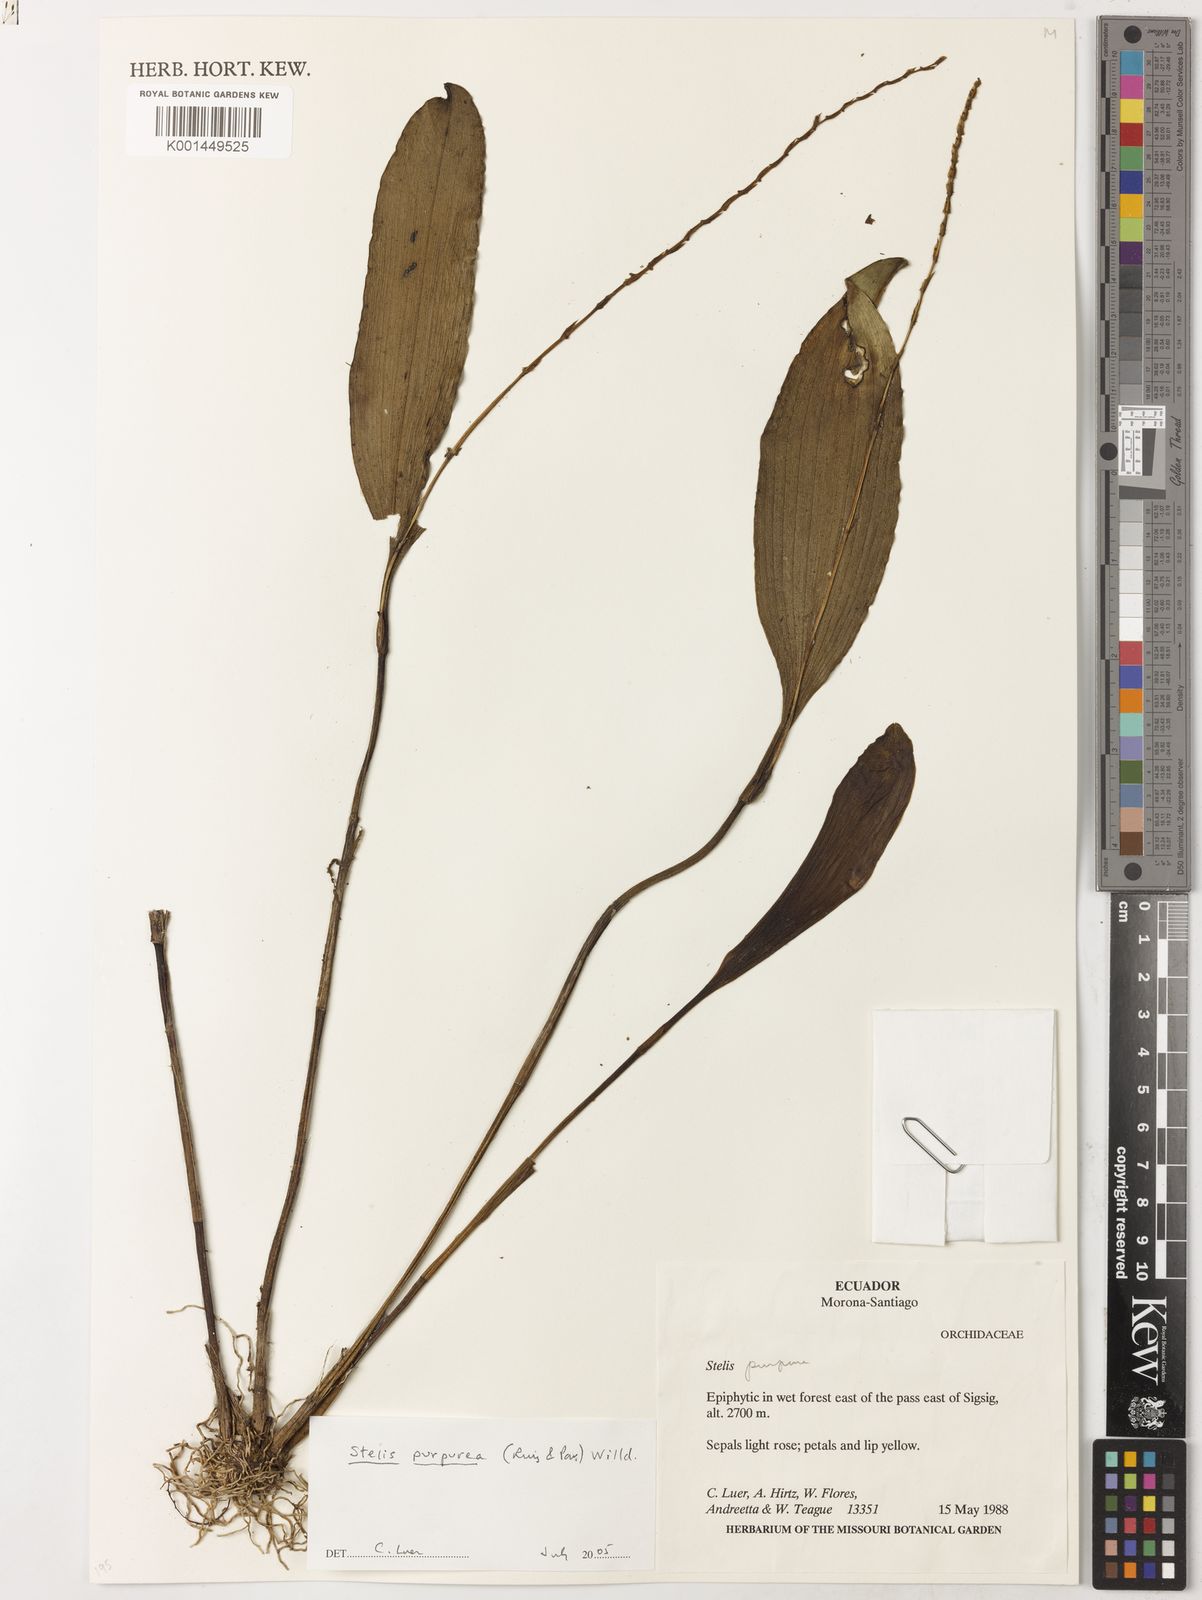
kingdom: Plantae
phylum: Tracheophyta
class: Liliopsida
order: Asparagales
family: Orchidaceae
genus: Stelis
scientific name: Stelis purpurascens
